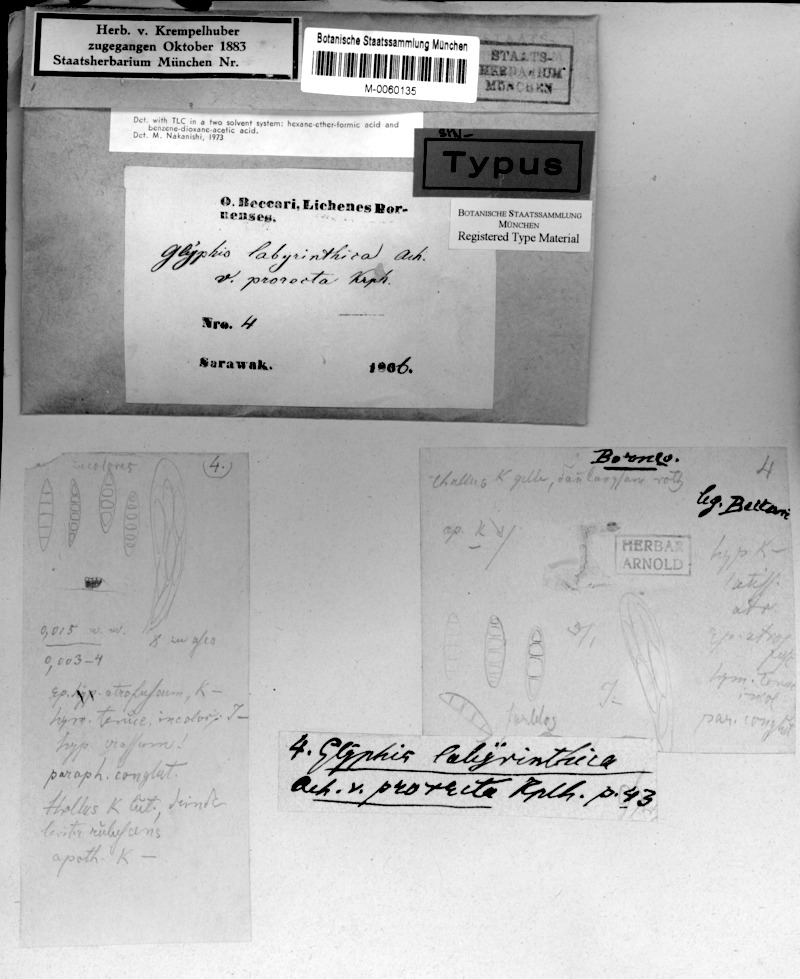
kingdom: Fungi
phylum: Ascomycota
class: Lecanoromycetes
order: Ostropales
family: Graphidaceae
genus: Sarcographa
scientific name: Sarcographa
